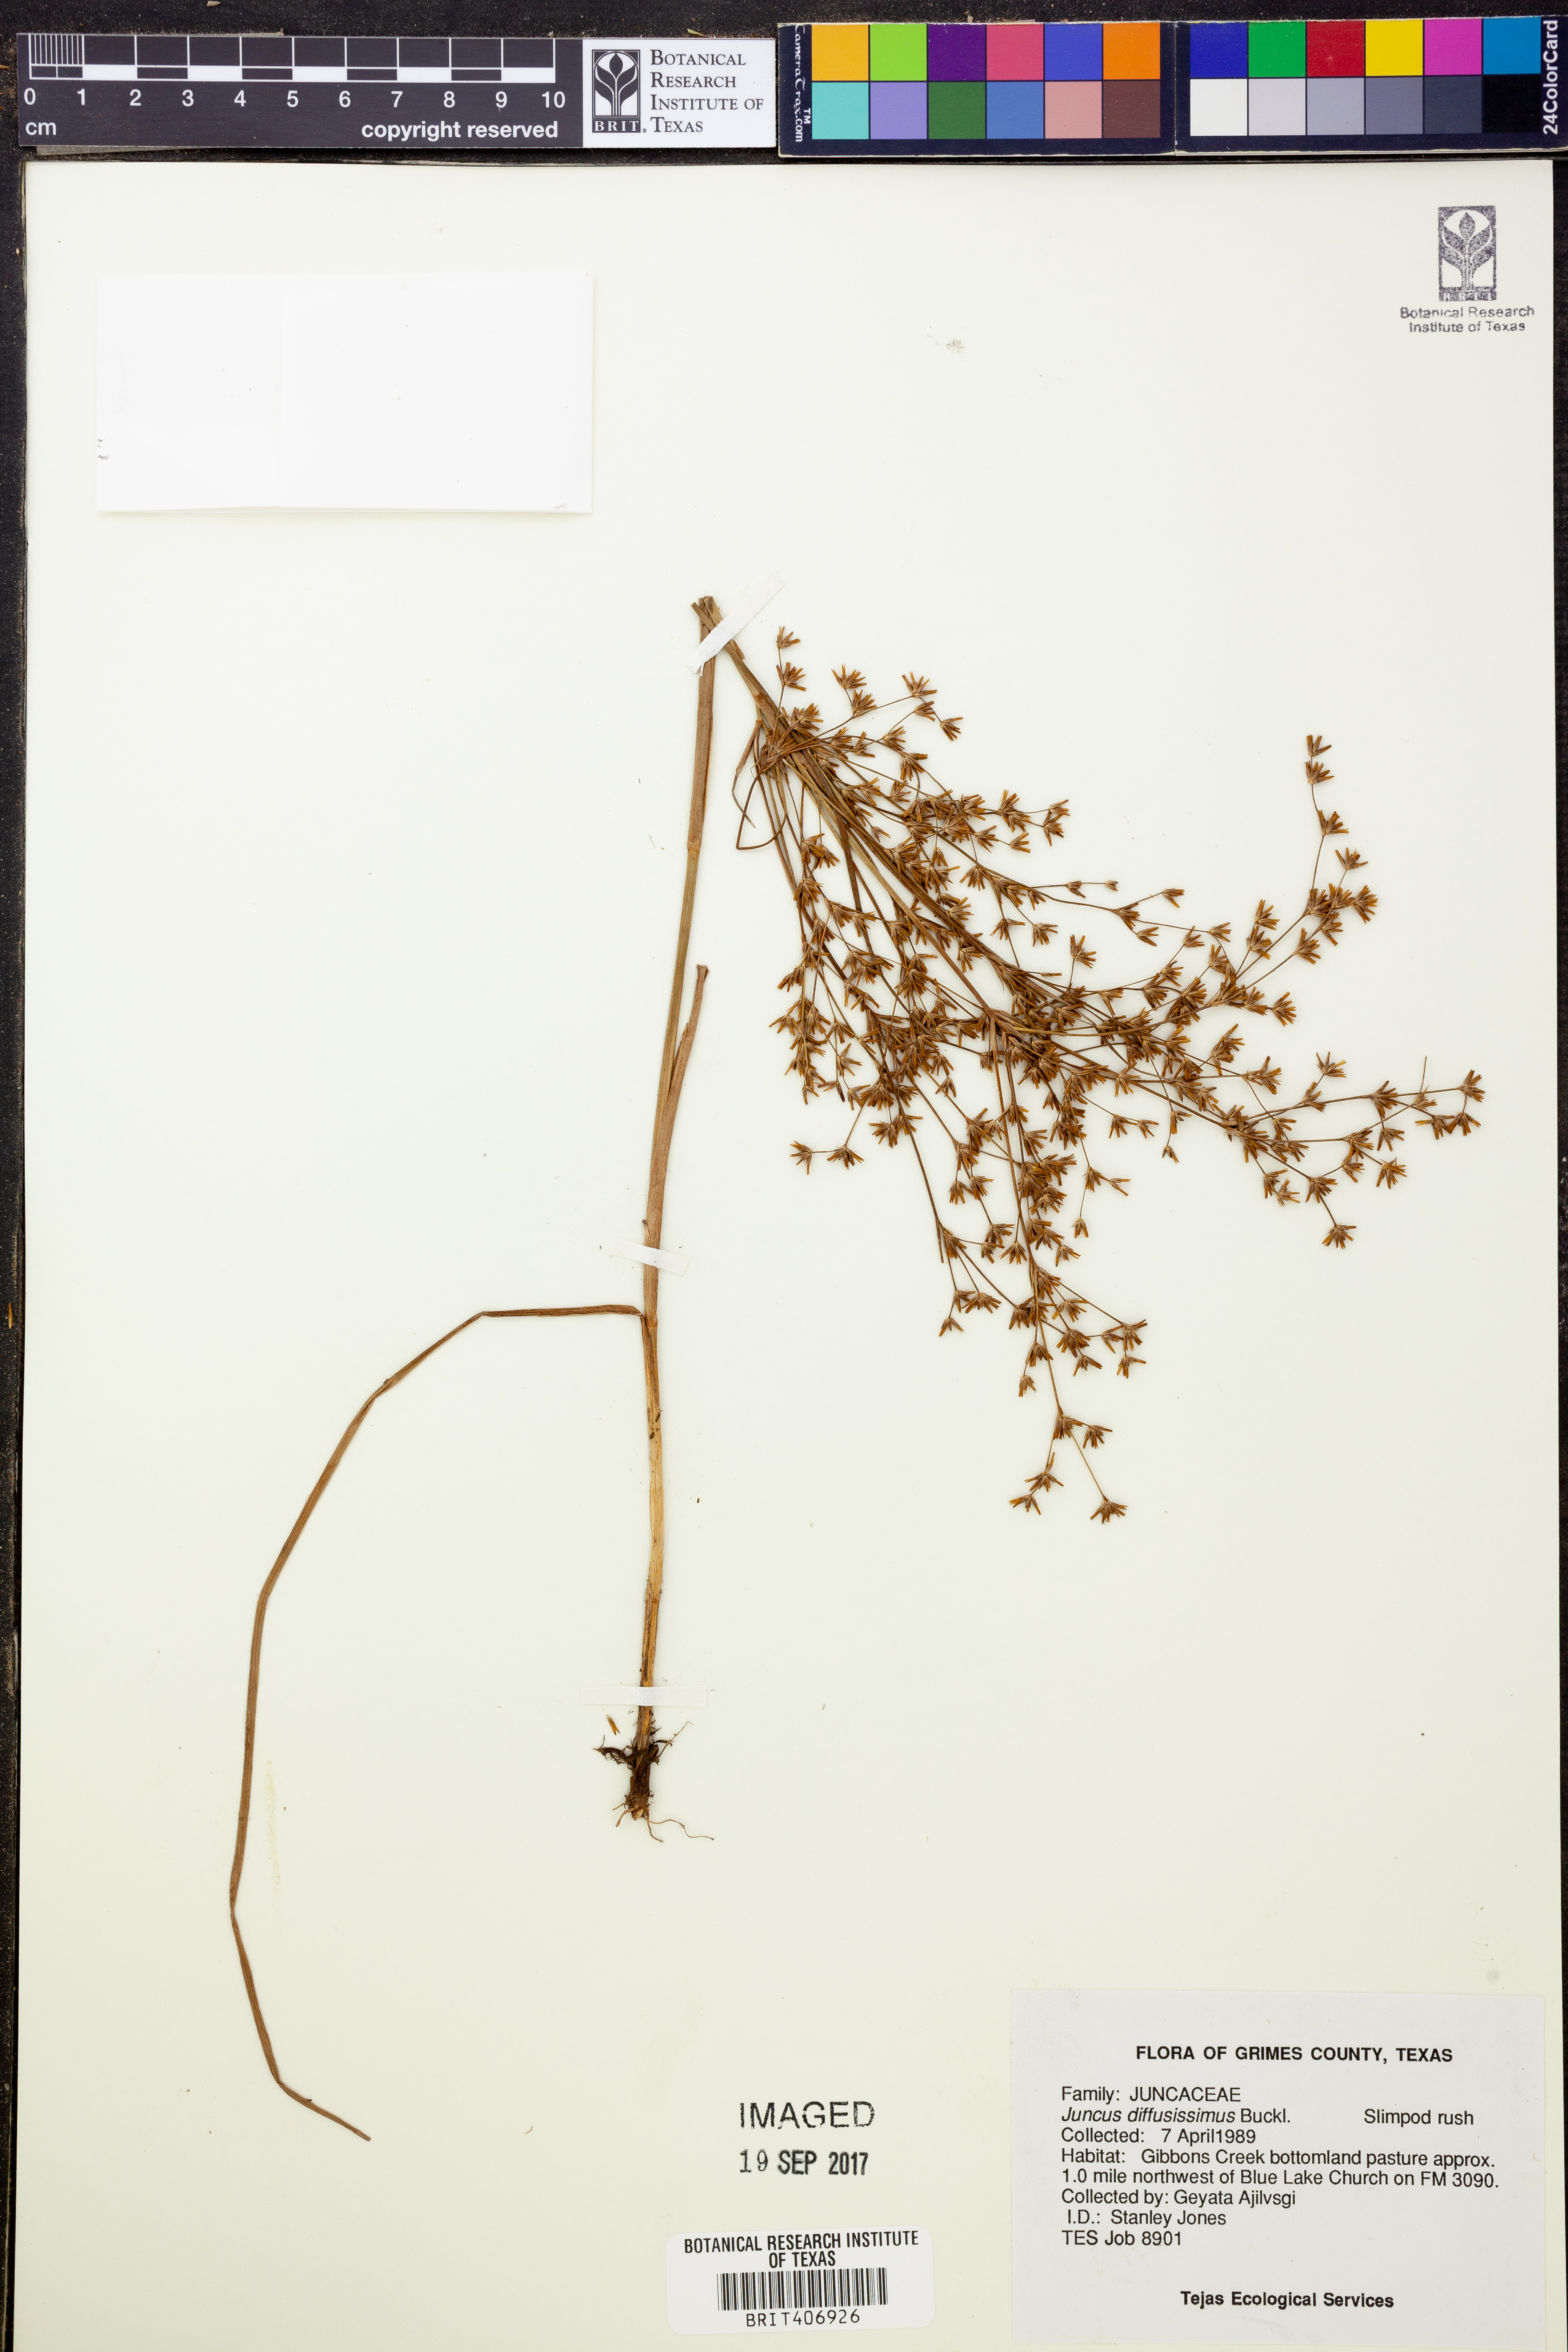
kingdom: Plantae
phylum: Tracheophyta
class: Liliopsida
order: Poales
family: Juncaceae
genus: Juncus
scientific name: Juncus diffusissimus
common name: Slimpod rush
